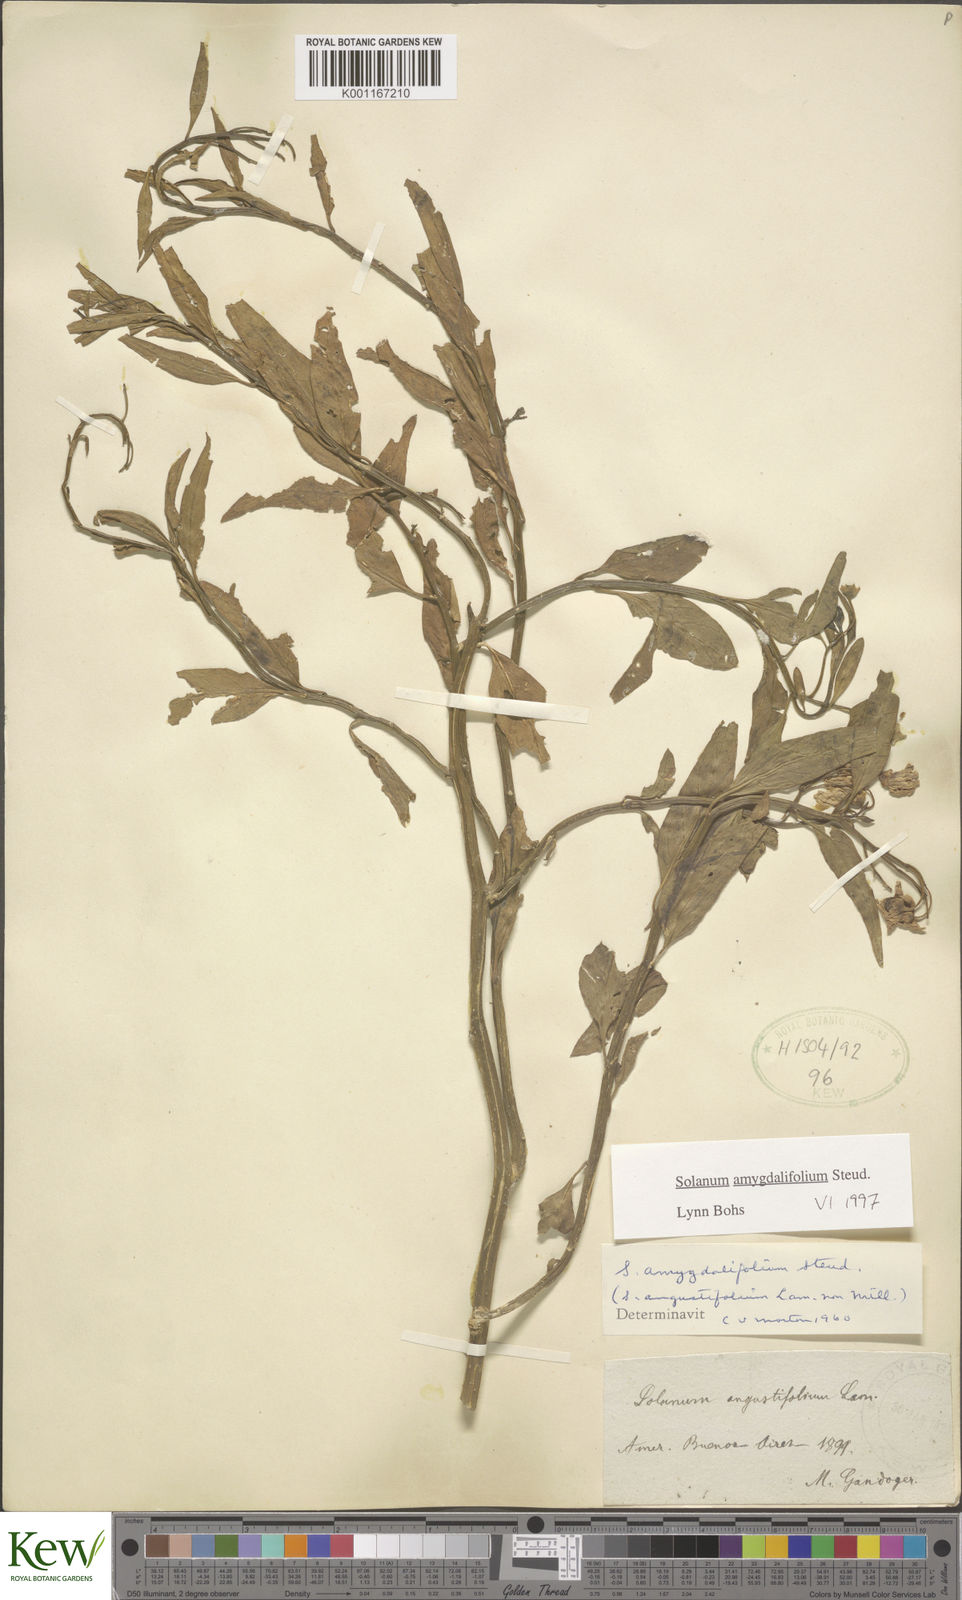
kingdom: Plantae
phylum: Tracheophyta
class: Magnoliopsida
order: Solanales
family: Solanaceae
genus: Solanum
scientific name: Solanum amygdalifolium
